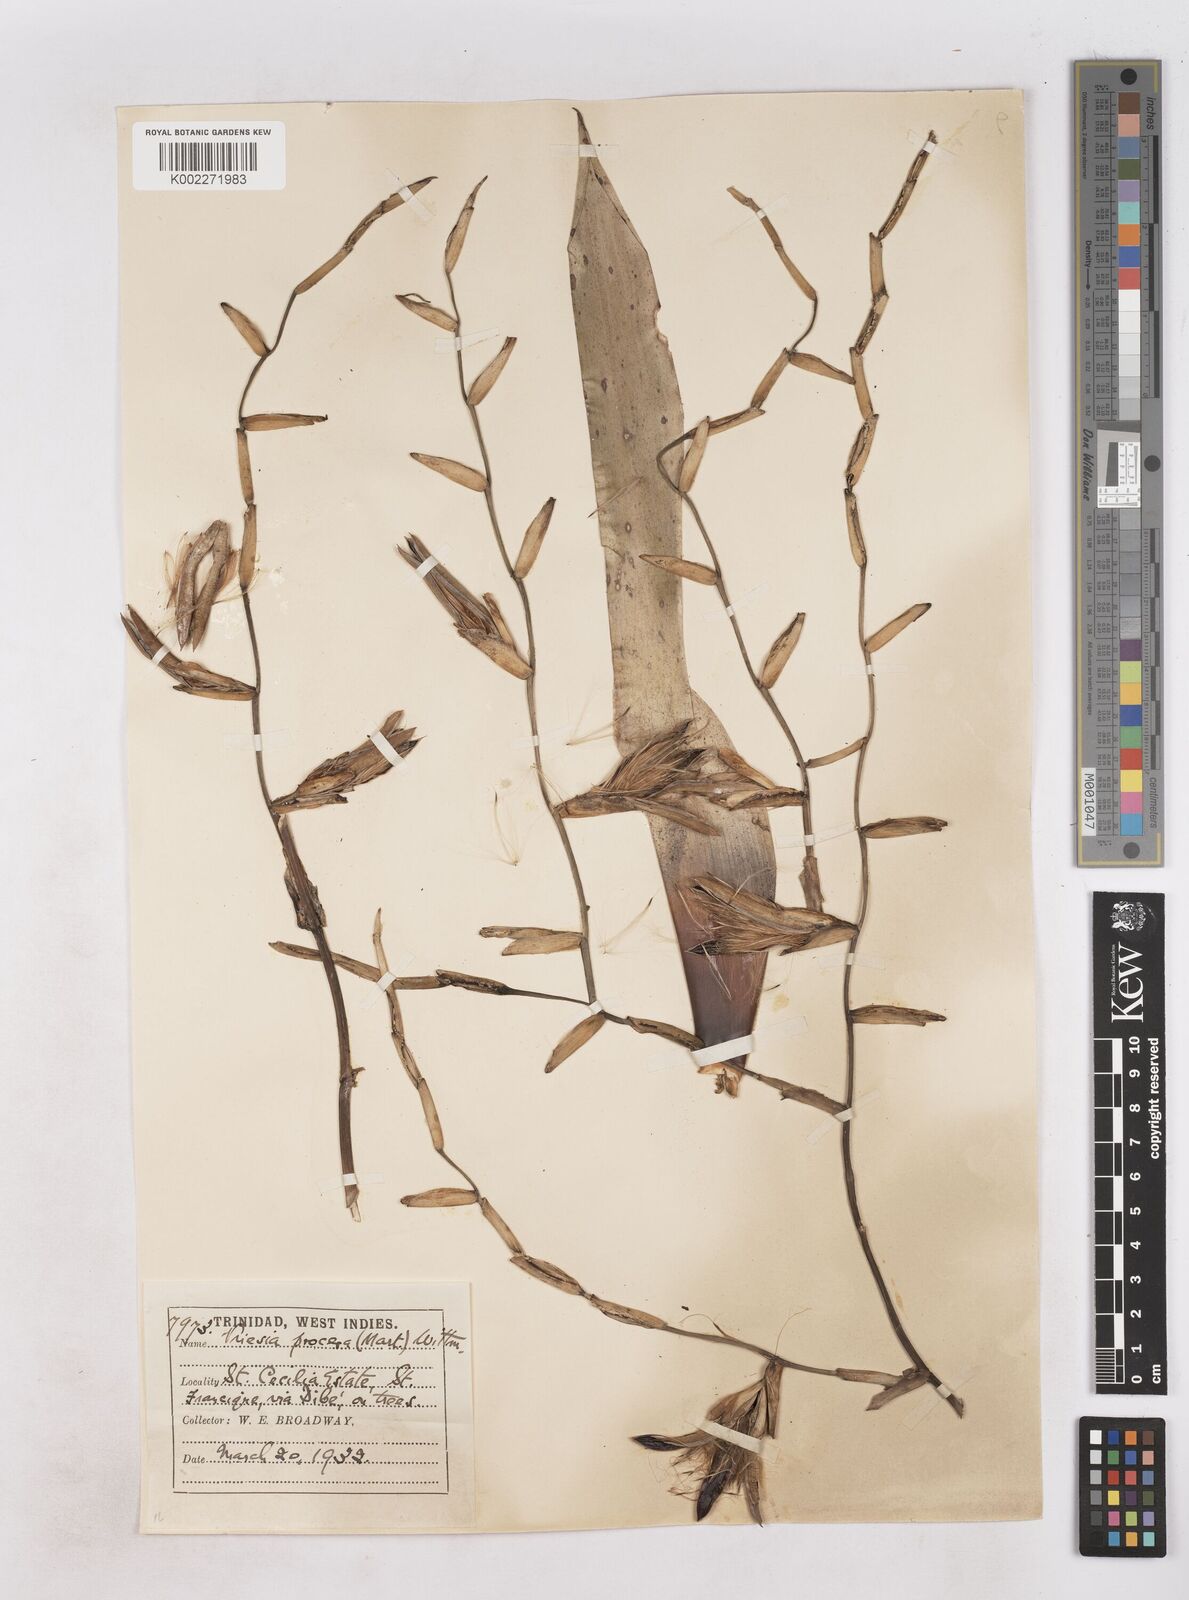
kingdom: Plantae
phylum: Tracheophyta
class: Liliopsida
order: Poales
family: Bromeliaceae
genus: Vriesea
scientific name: Vriesea procera
